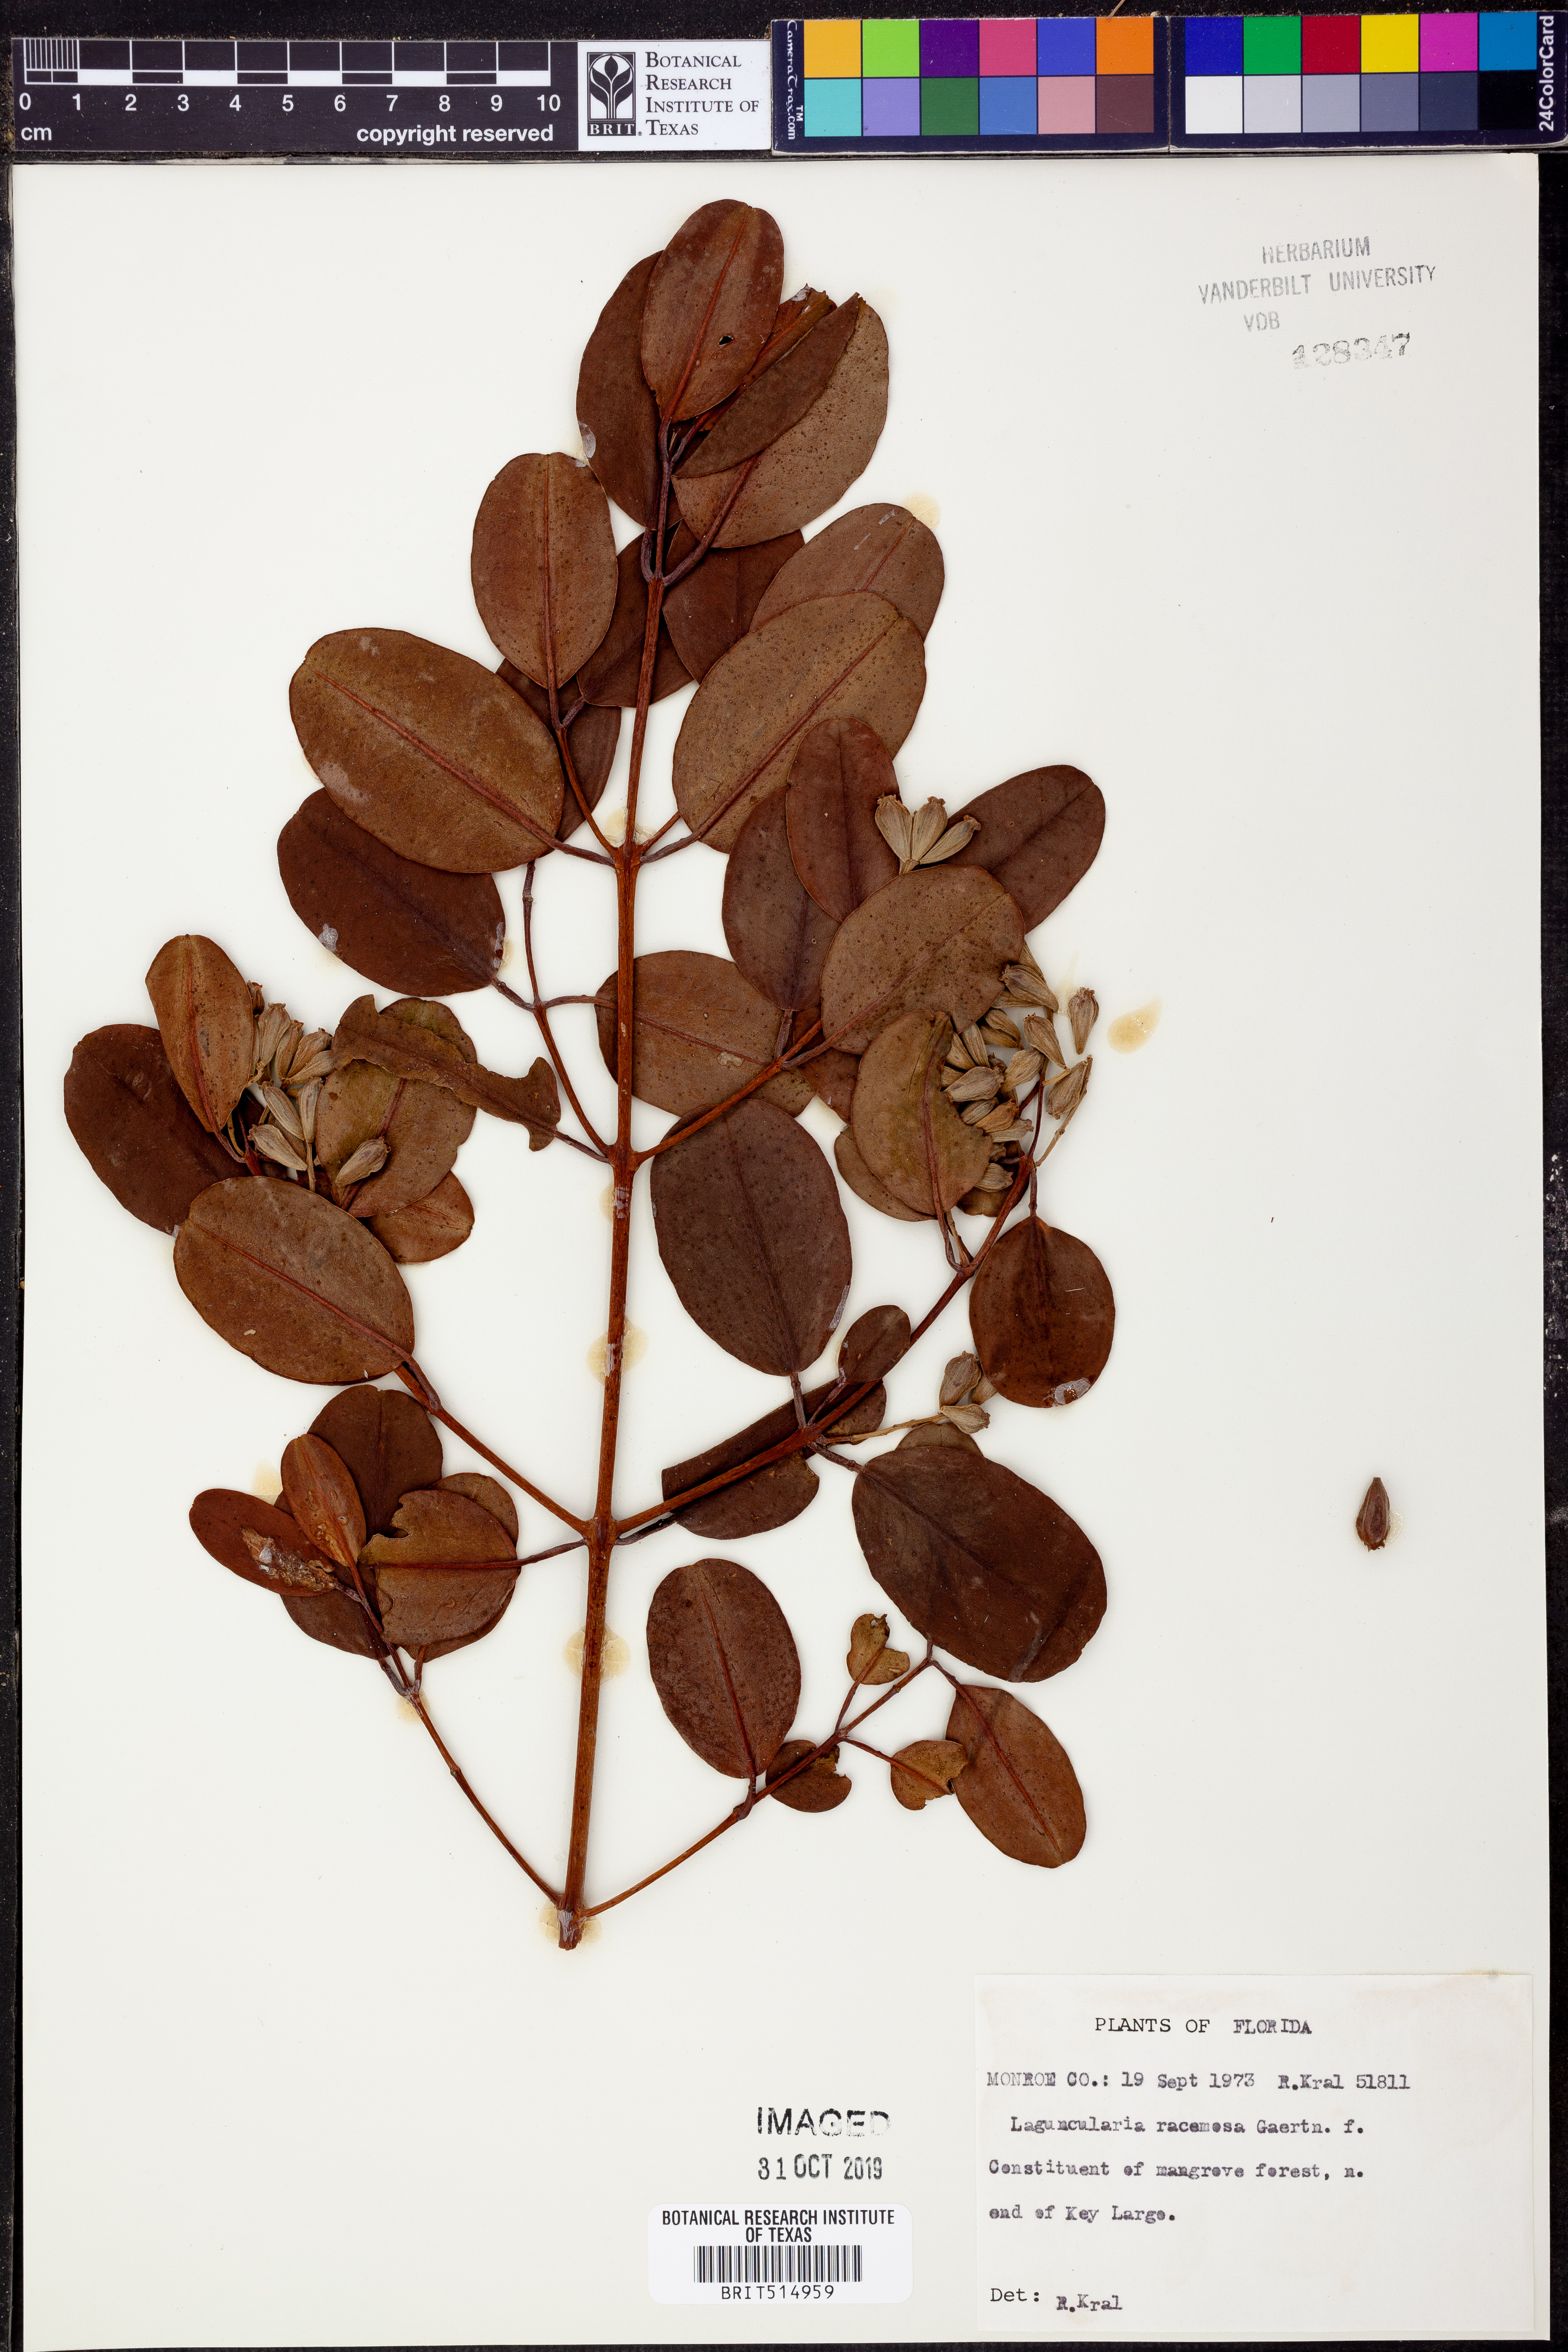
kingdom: Plantae
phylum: Tracheophyta
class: Magnoliopsida
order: Myrtales
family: Combretaceae
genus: Laguncularia
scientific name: Laguncularia racemosa
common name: White mangrove
